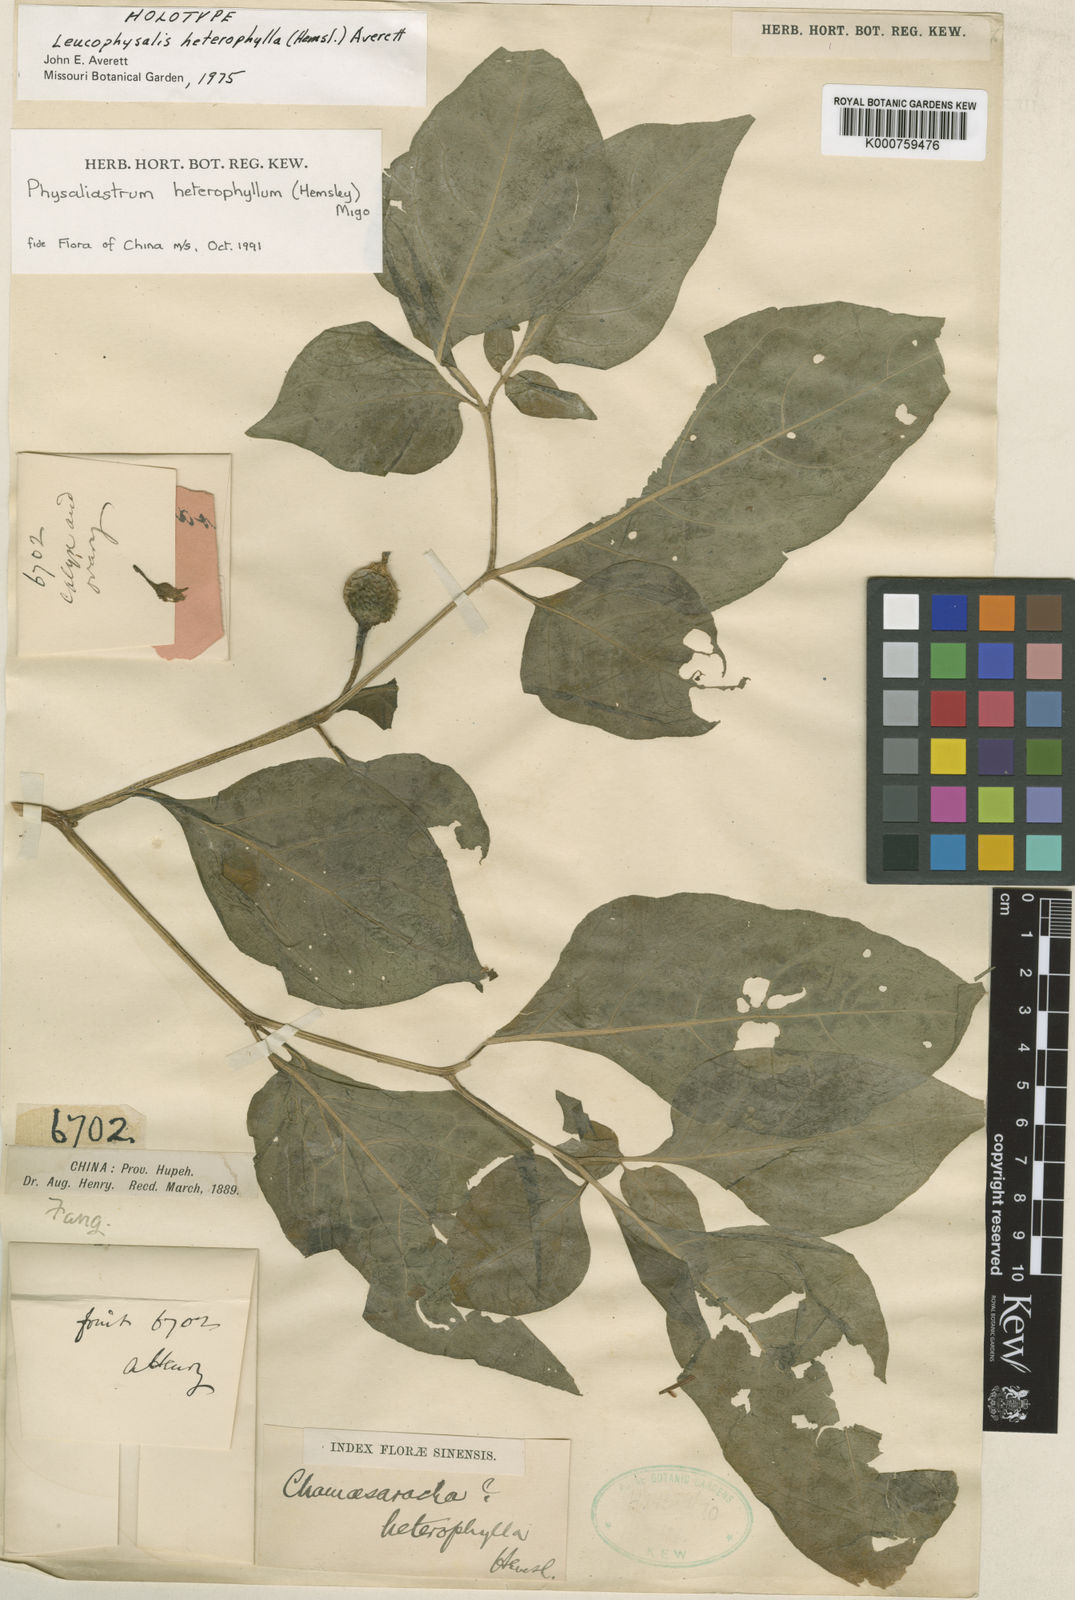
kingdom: Plantae
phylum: Tracheophyta
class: Magnoliopsida
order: Solanales
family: Solanaceae
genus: Physaliastrum
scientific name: Physaliastrum heterophyllum
